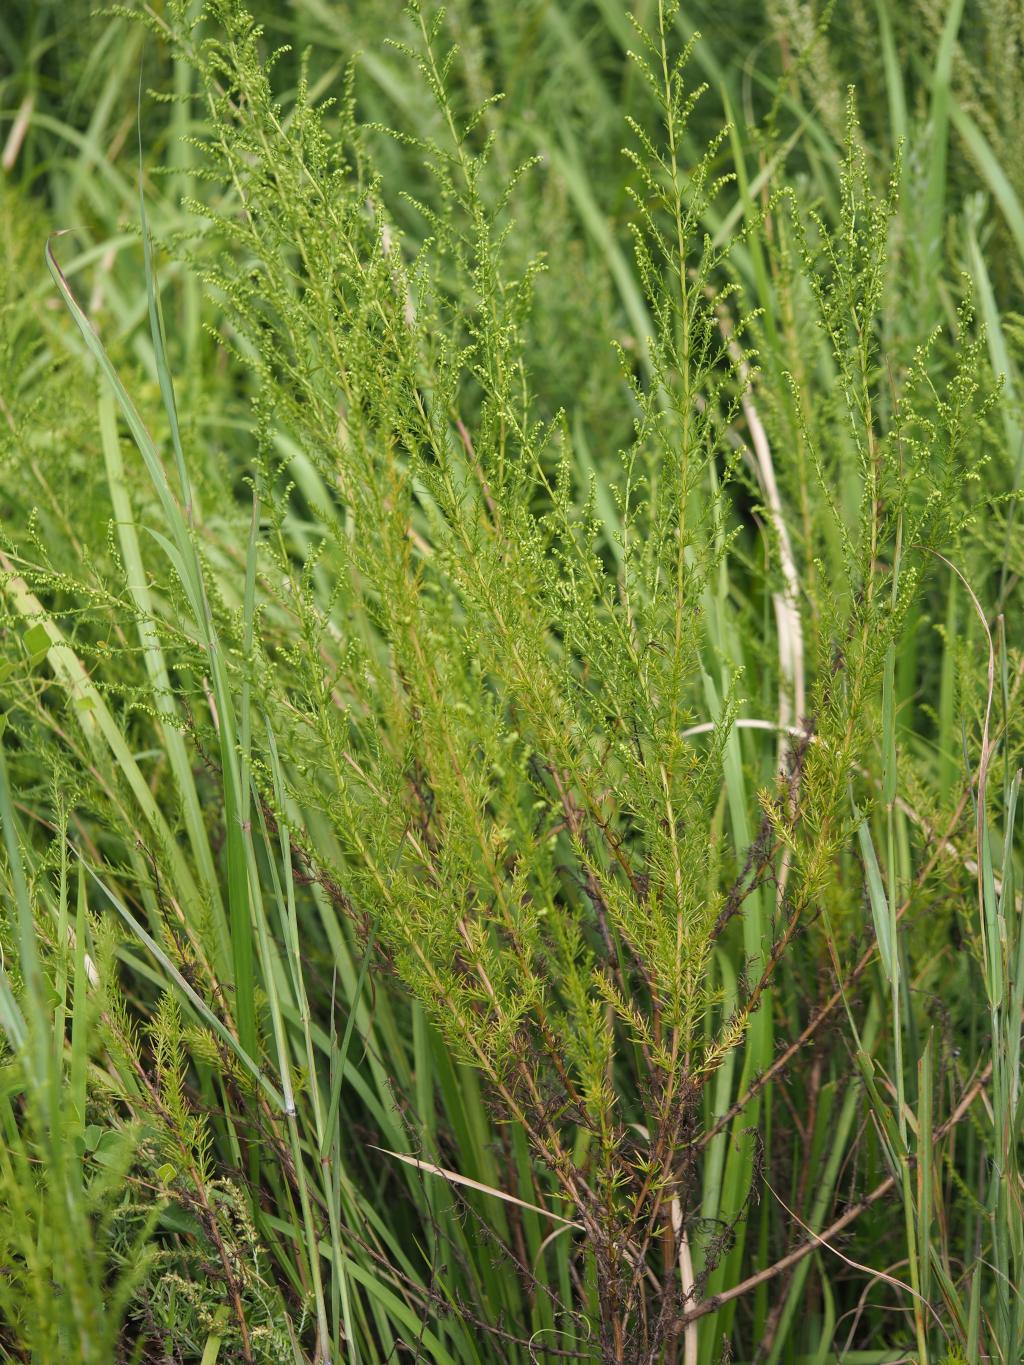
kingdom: Plantae
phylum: Tracheophyta
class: Magnoliopsida
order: Asterales
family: Asteraceae
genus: Artemisia
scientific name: Artemisia capillaris
